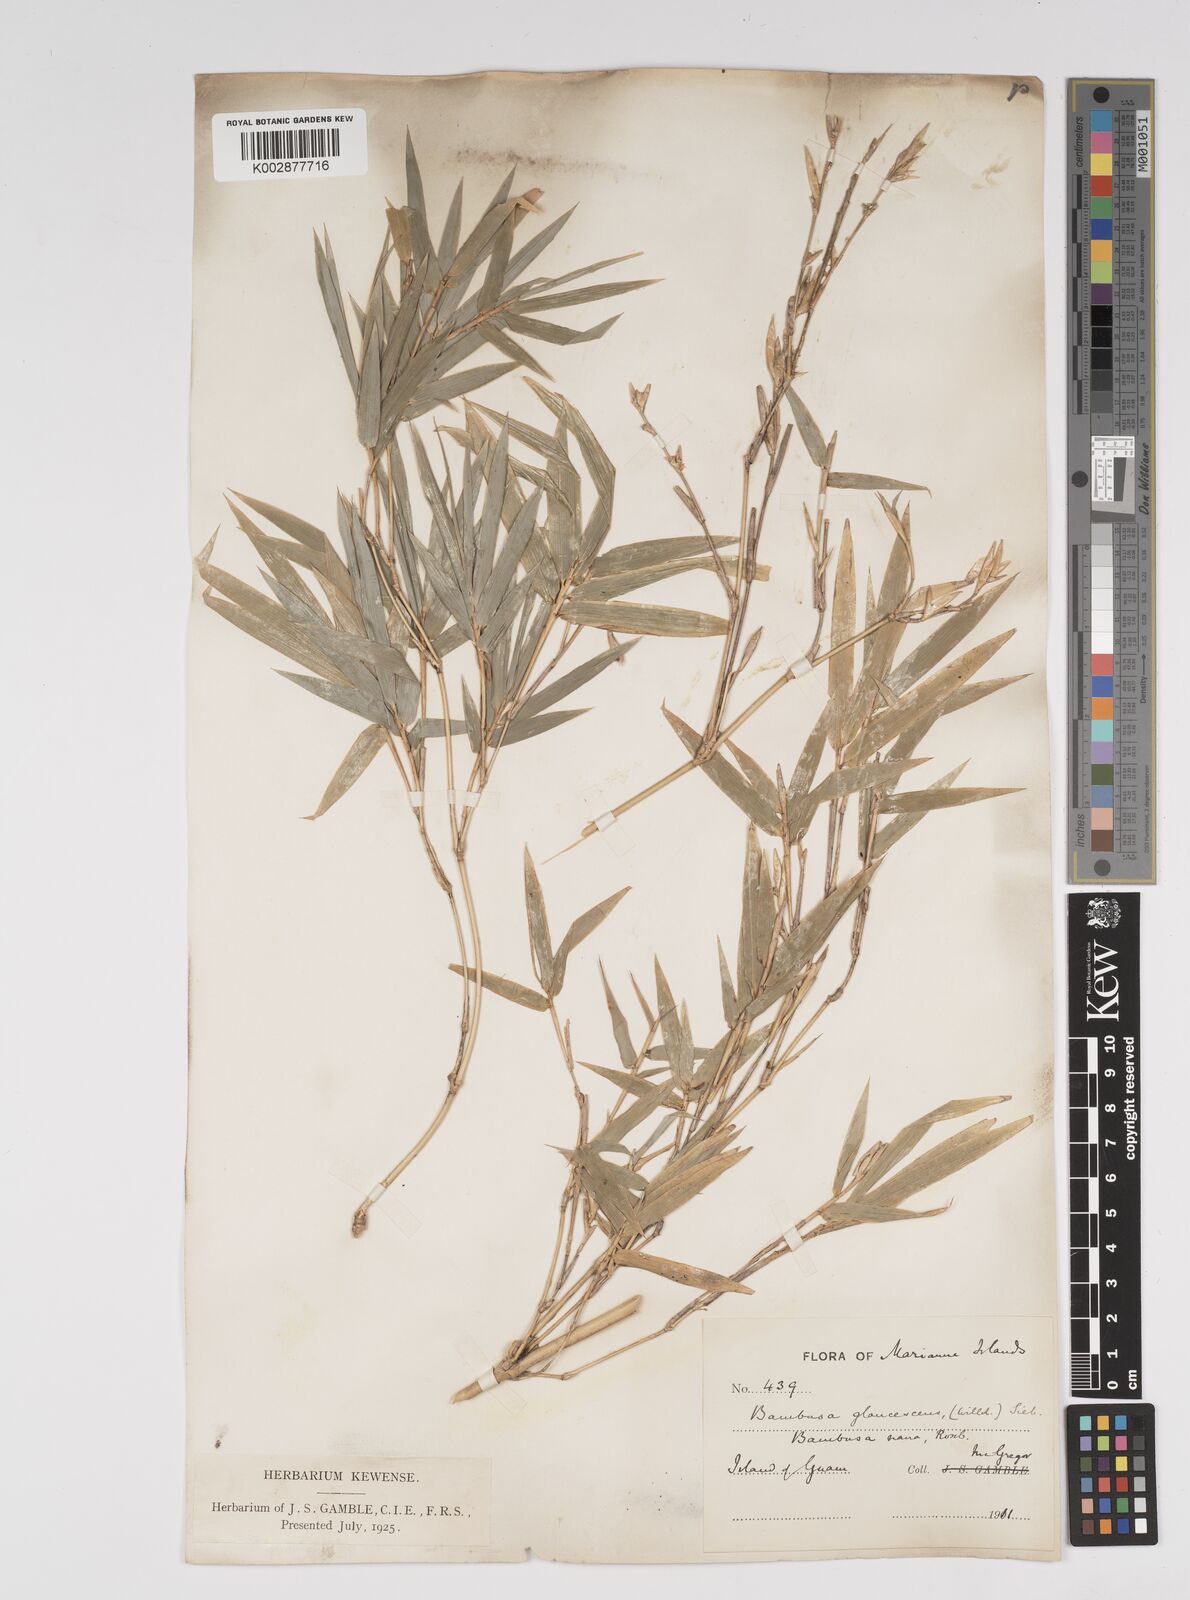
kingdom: Plantae
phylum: Tracheophyta
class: Liliopsida
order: Poales
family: Poaceae
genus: Bambusa
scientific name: Bambusa multiplex
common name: Hedge bamboo
